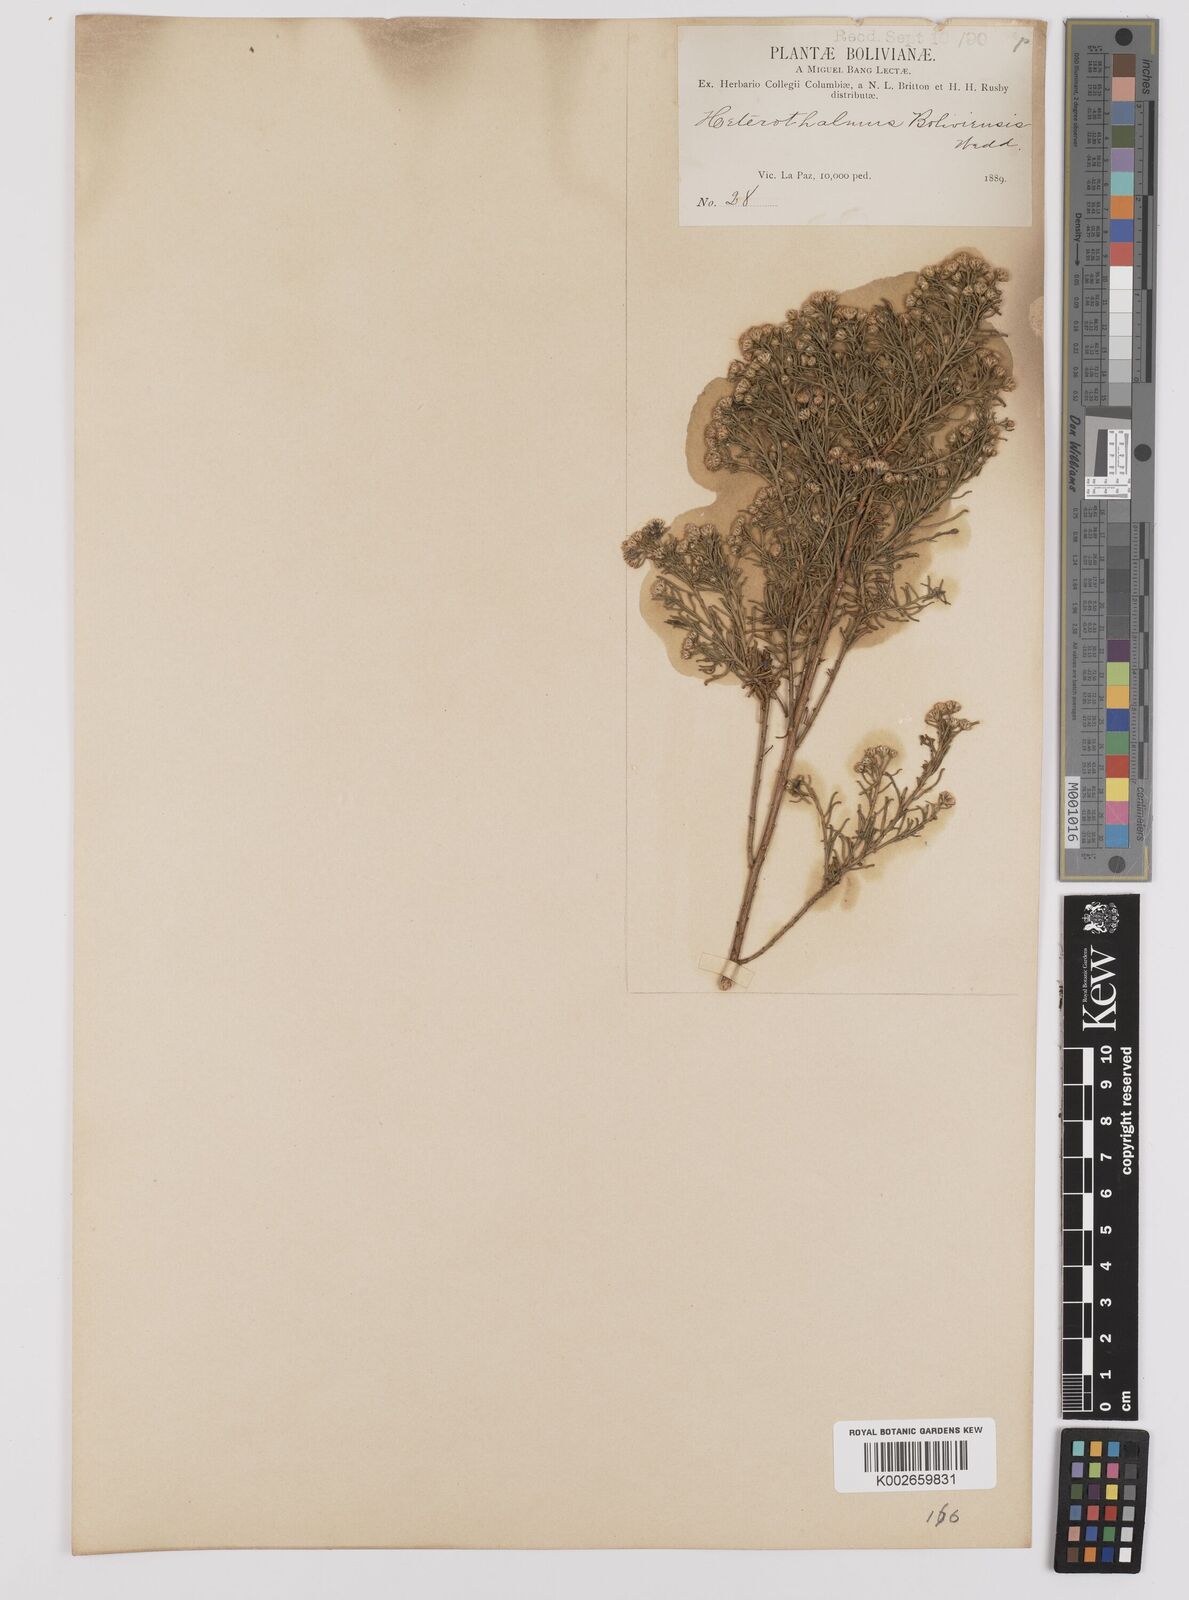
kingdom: Plantae
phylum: Tracheophyta
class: Magnoliopsida
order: Asterales
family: Asteraceae
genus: Baccharis
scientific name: Baccharis bolivensis
